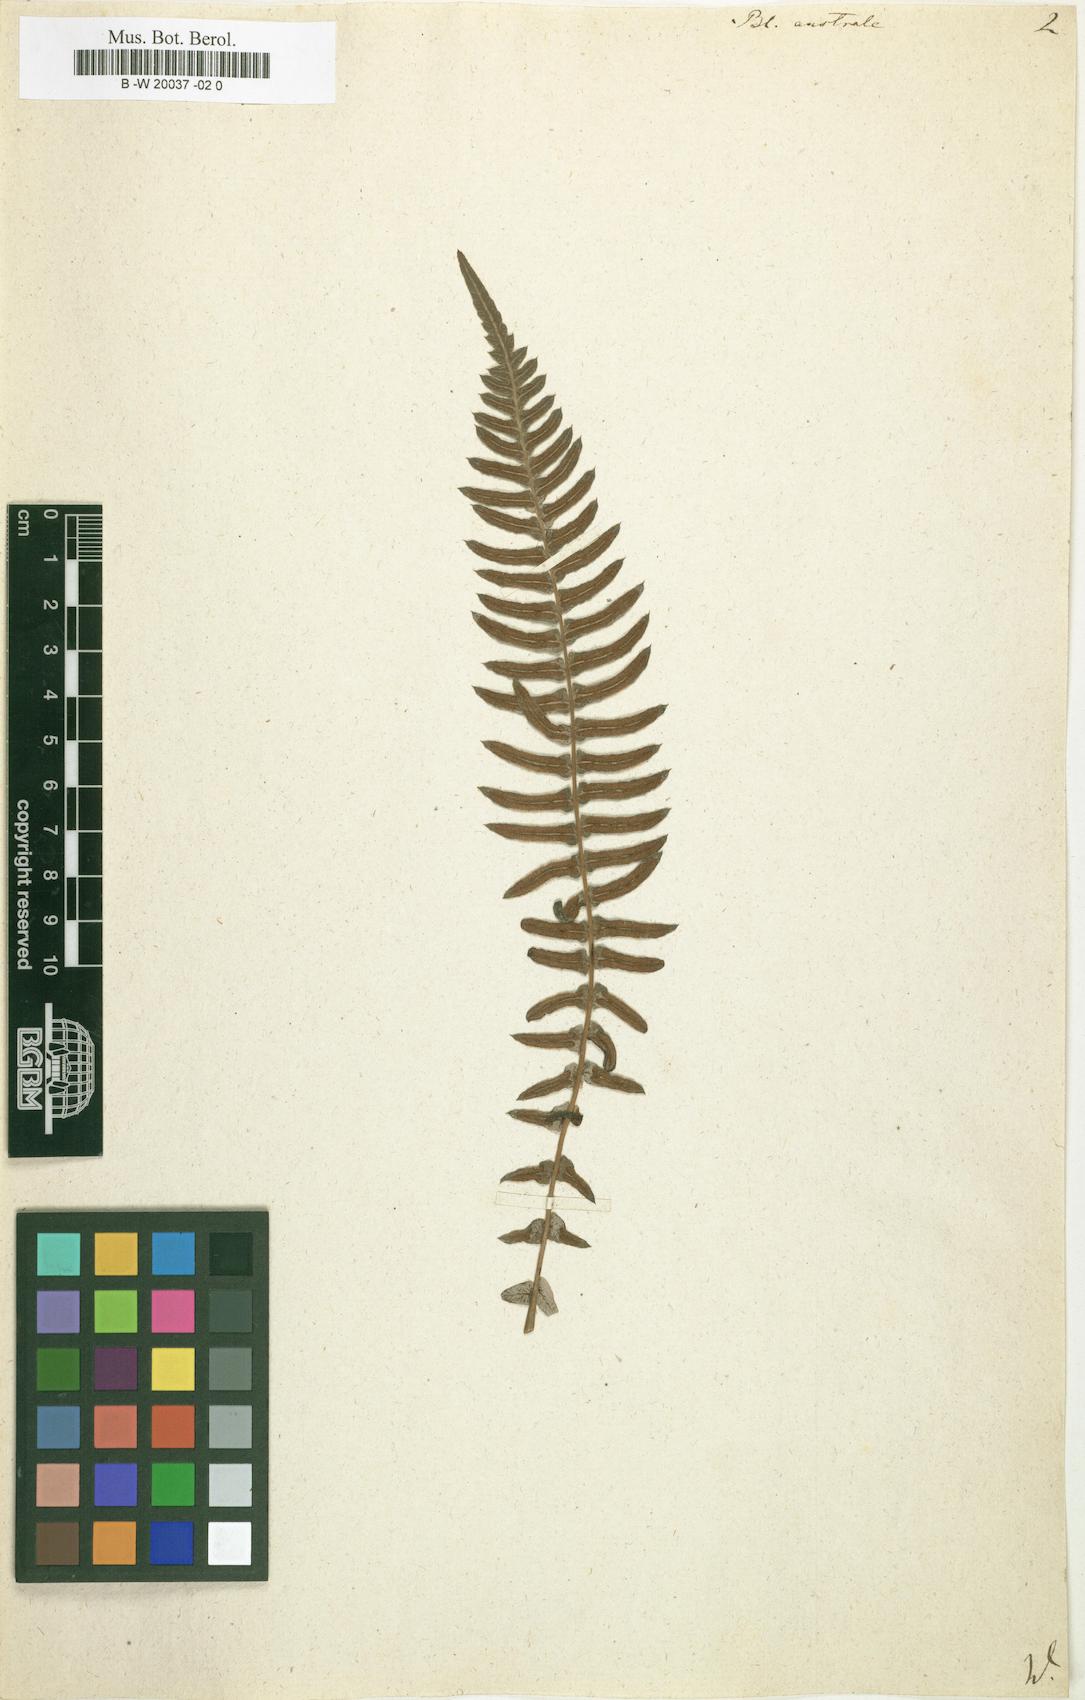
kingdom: Plantae
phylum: Tracheophyta
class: Polypodiopsida
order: Polypodiales
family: Blechnaceae
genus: Blechnum
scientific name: Blechnum australe
